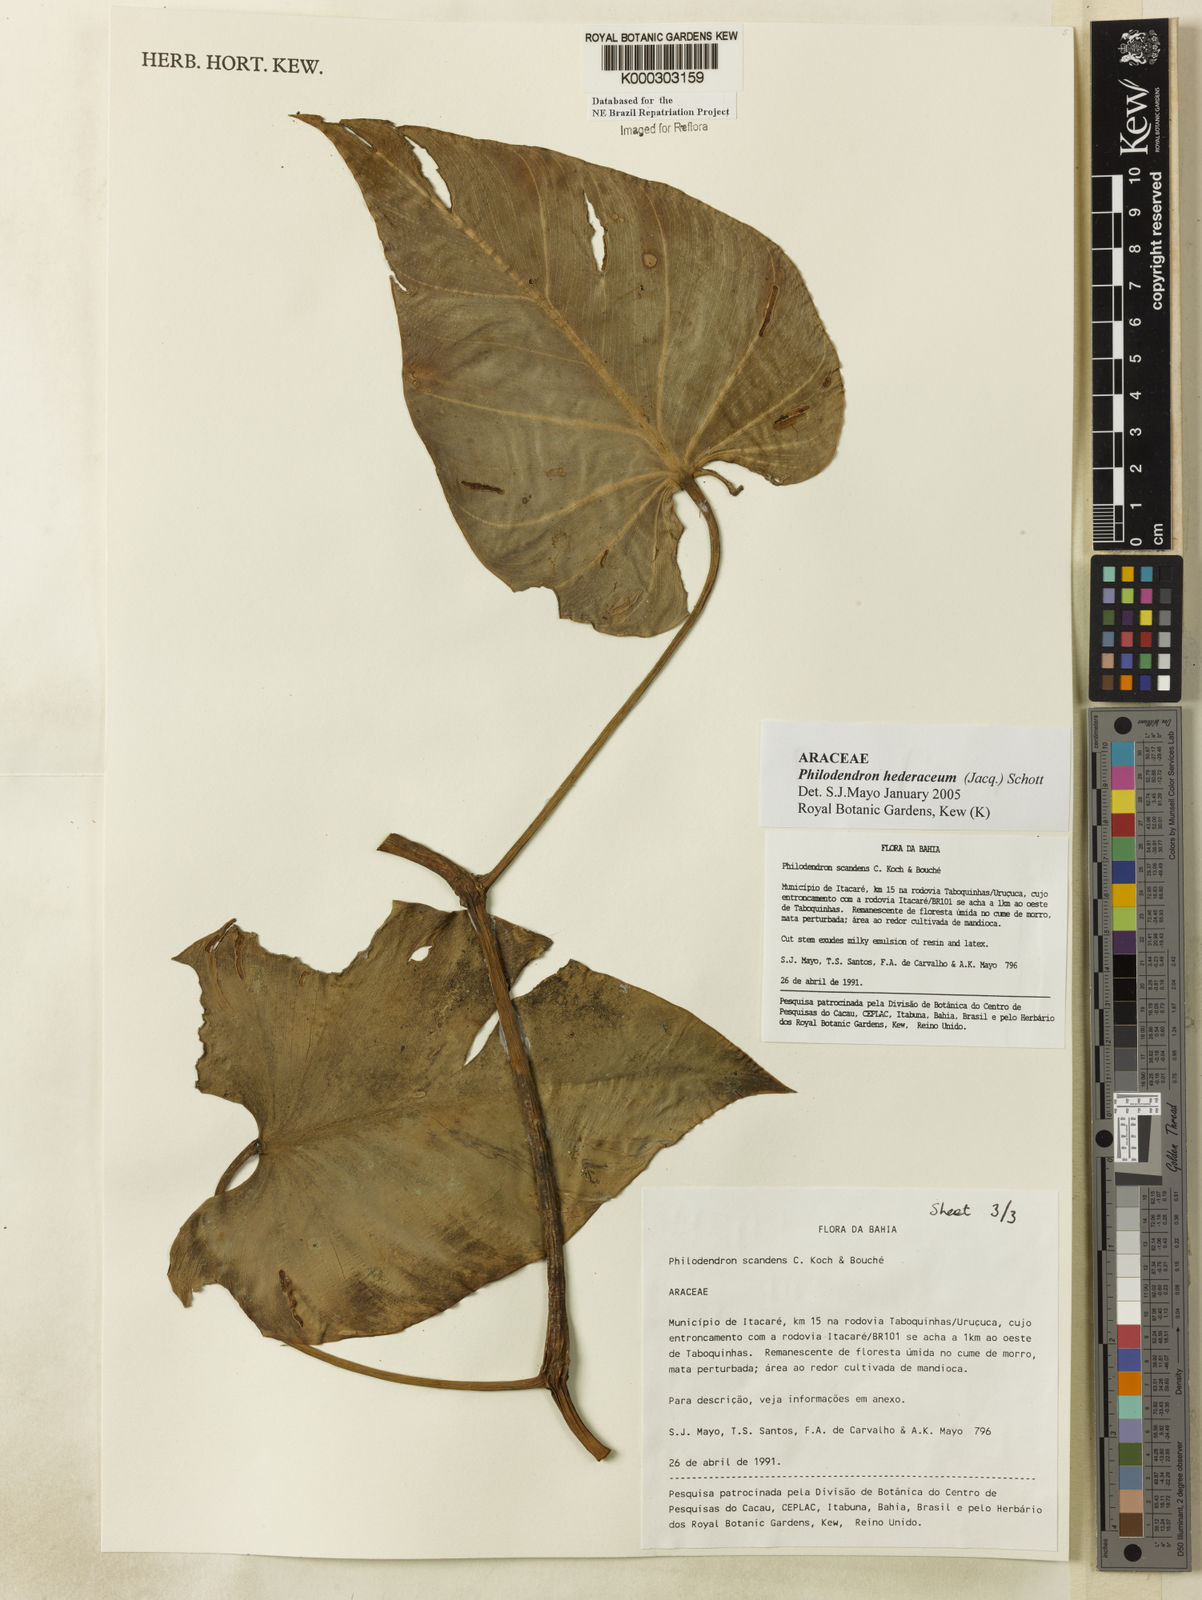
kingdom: Plantae
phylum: Tracheophyta
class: Liliopsida
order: Alismatales
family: Araceae
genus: Philodendron
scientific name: Philodendron hederaceum
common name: Vilevine
